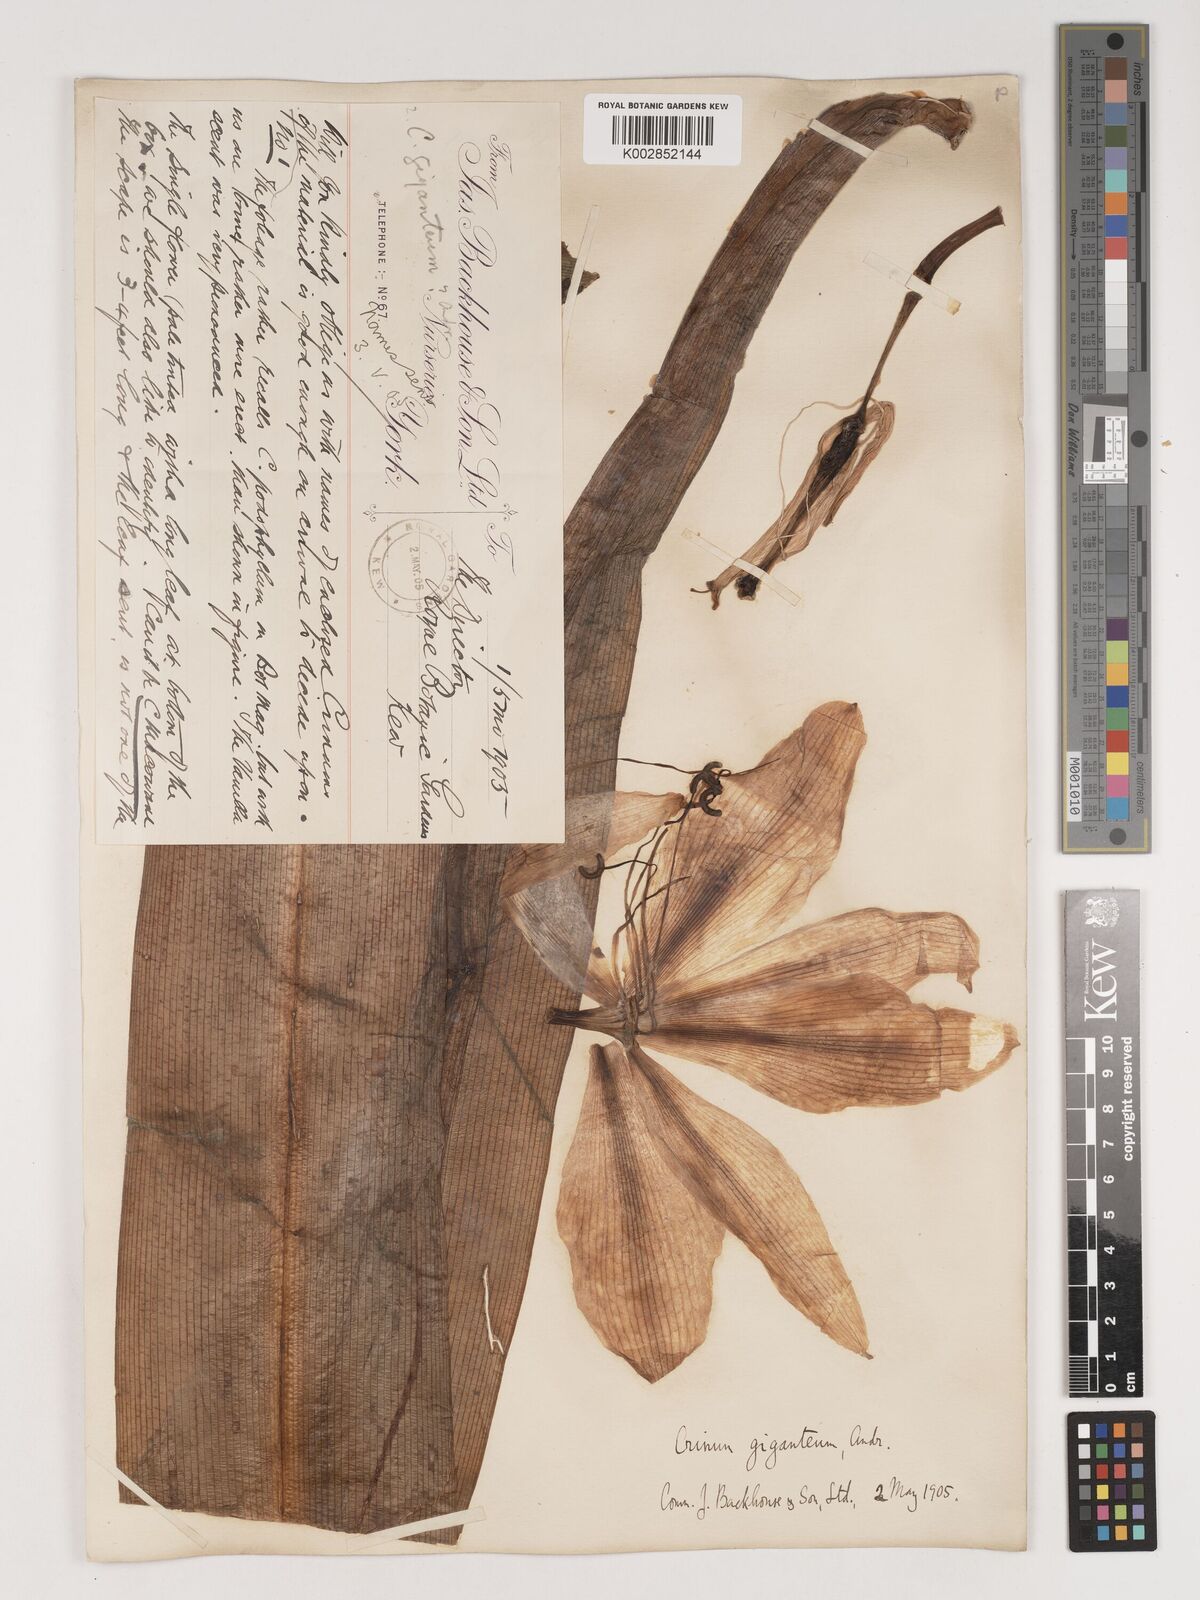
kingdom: Plantae
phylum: Tracheophyta
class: Liliopsida
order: Asparagales
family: Amaryllidaceae
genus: Crinum
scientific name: Crinum jagus
